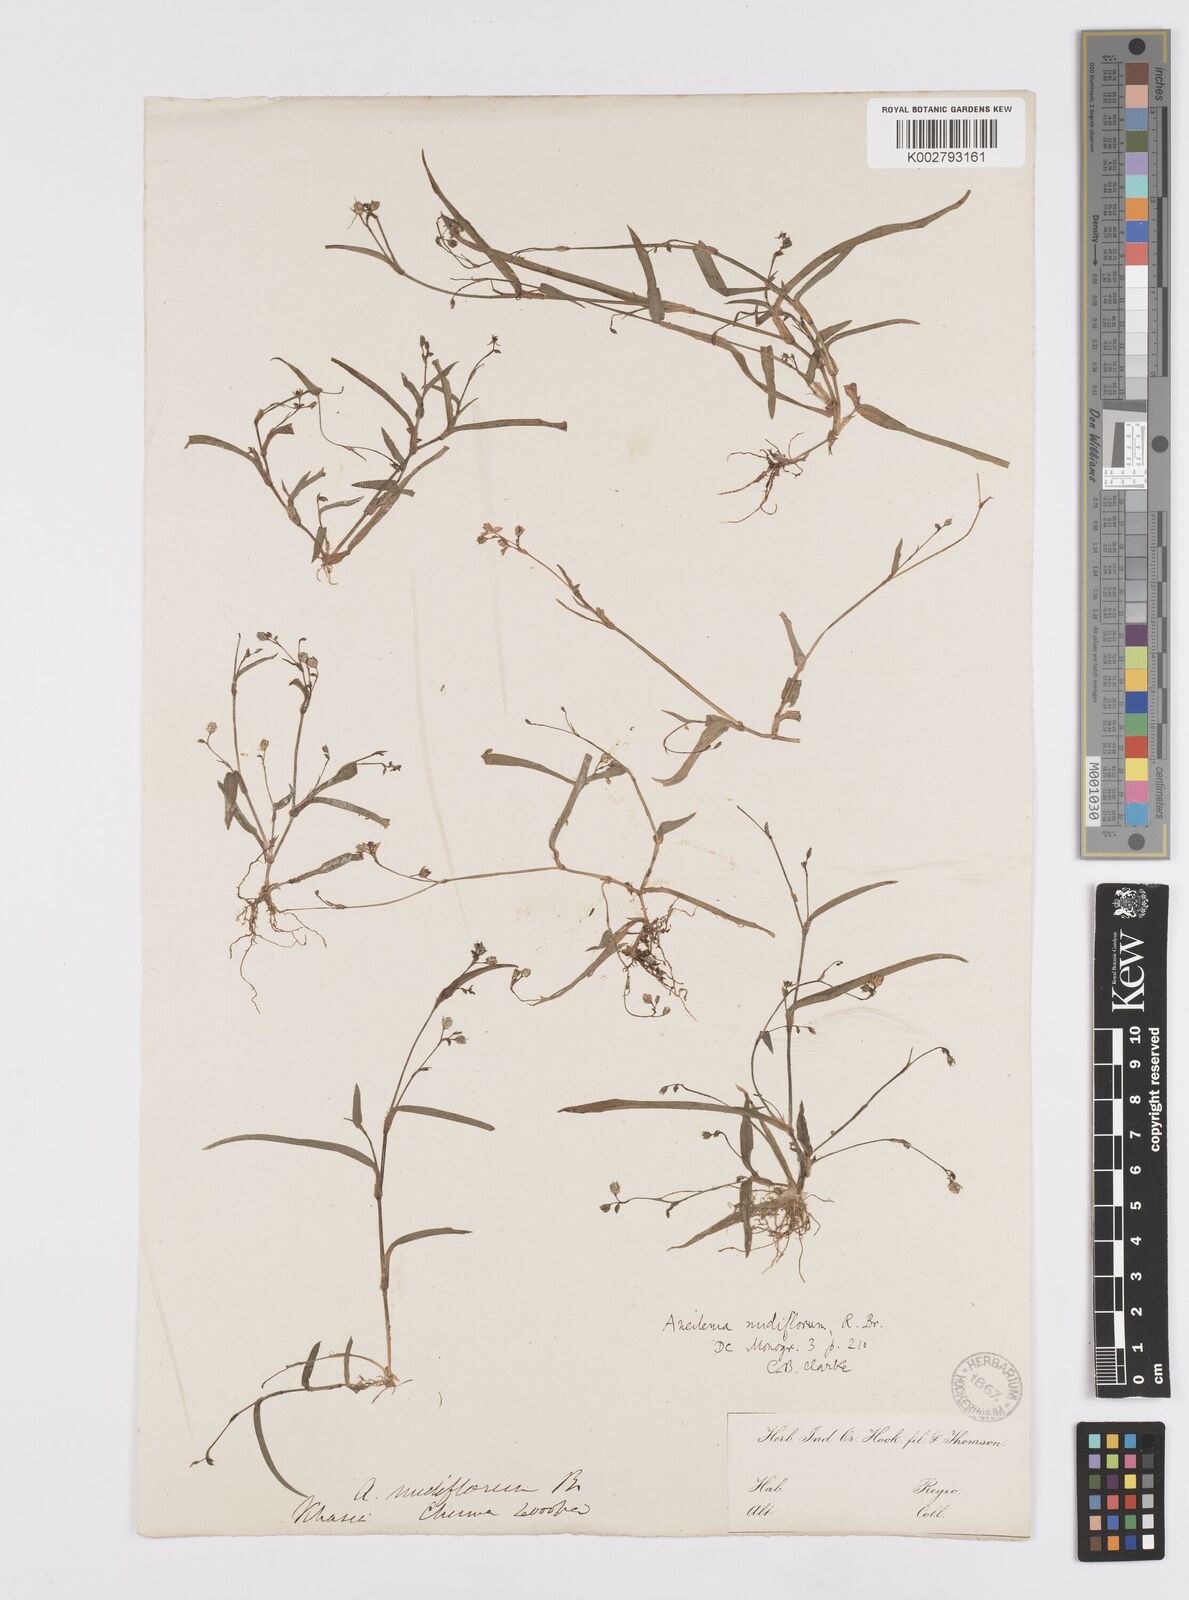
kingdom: Plantae
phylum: Tracheophyta
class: Liliopsida
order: Commelinales
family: Commelinaceae
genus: Murdannia
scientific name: Murdannia
